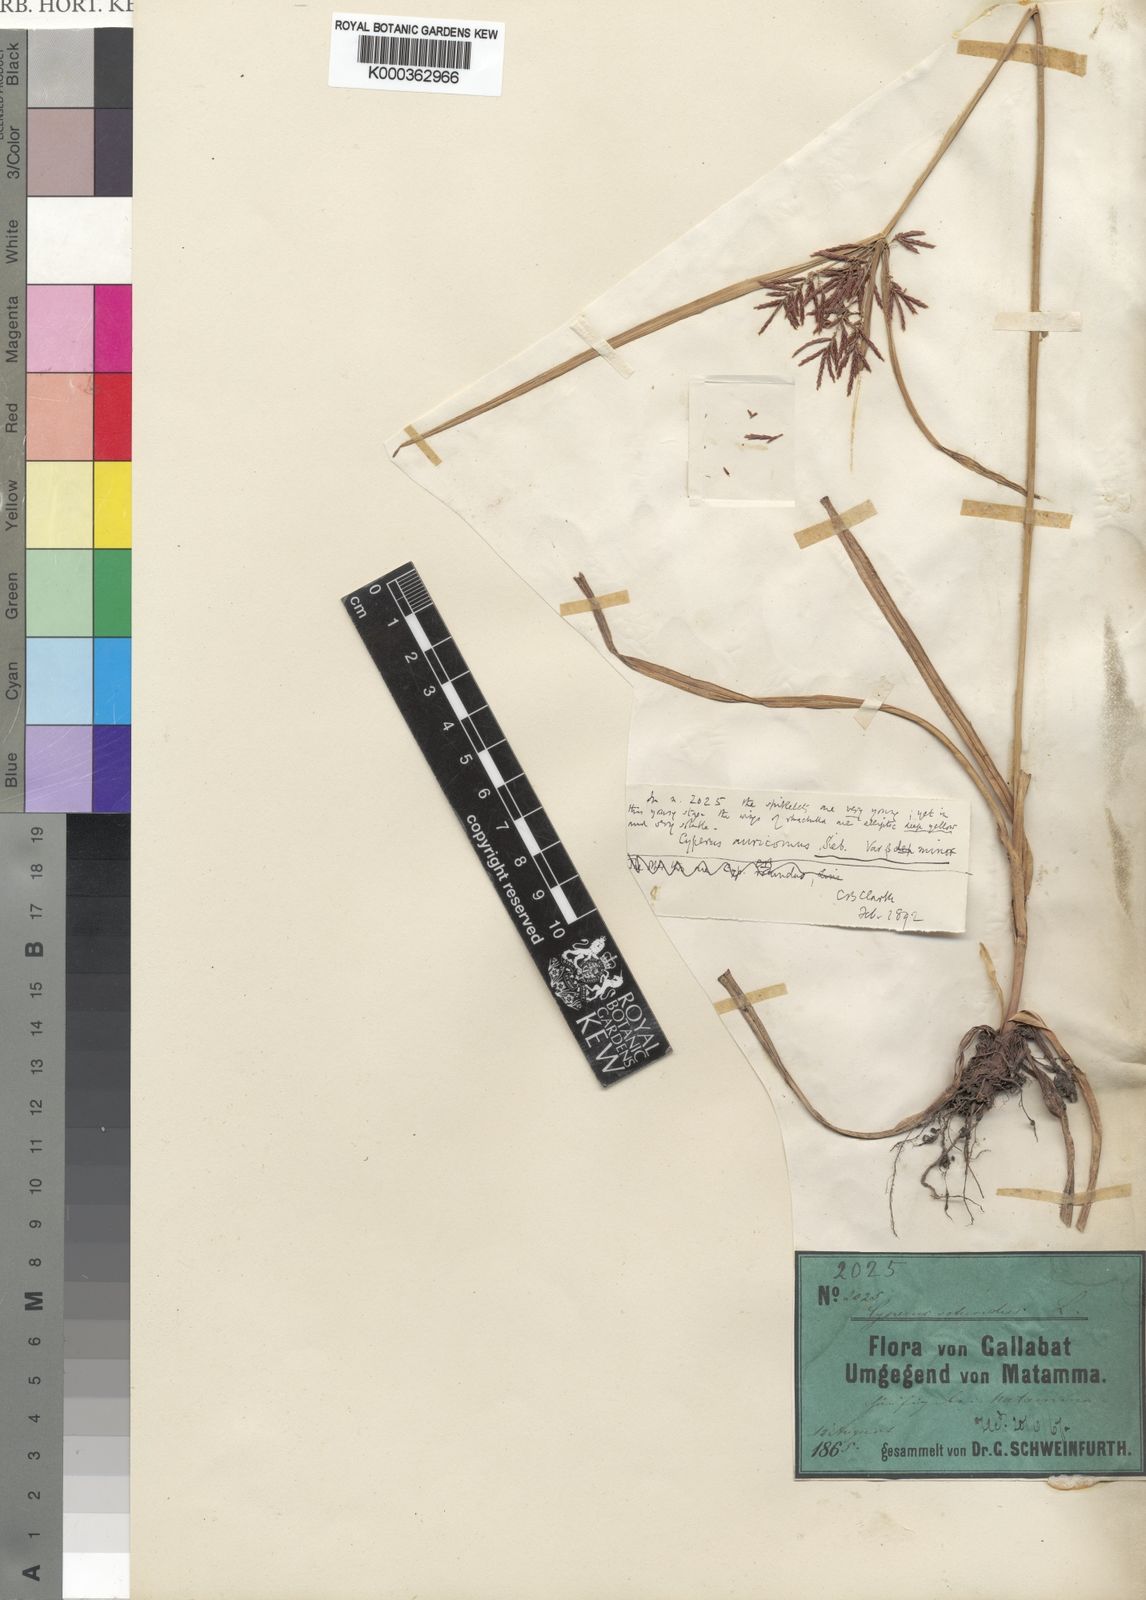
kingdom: Plantae
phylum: Tracheophyta
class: Liliopsida
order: Poales
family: Cyperaceae
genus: Cyperus
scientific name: Cyperus digitatus
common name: Finger flatsedge
